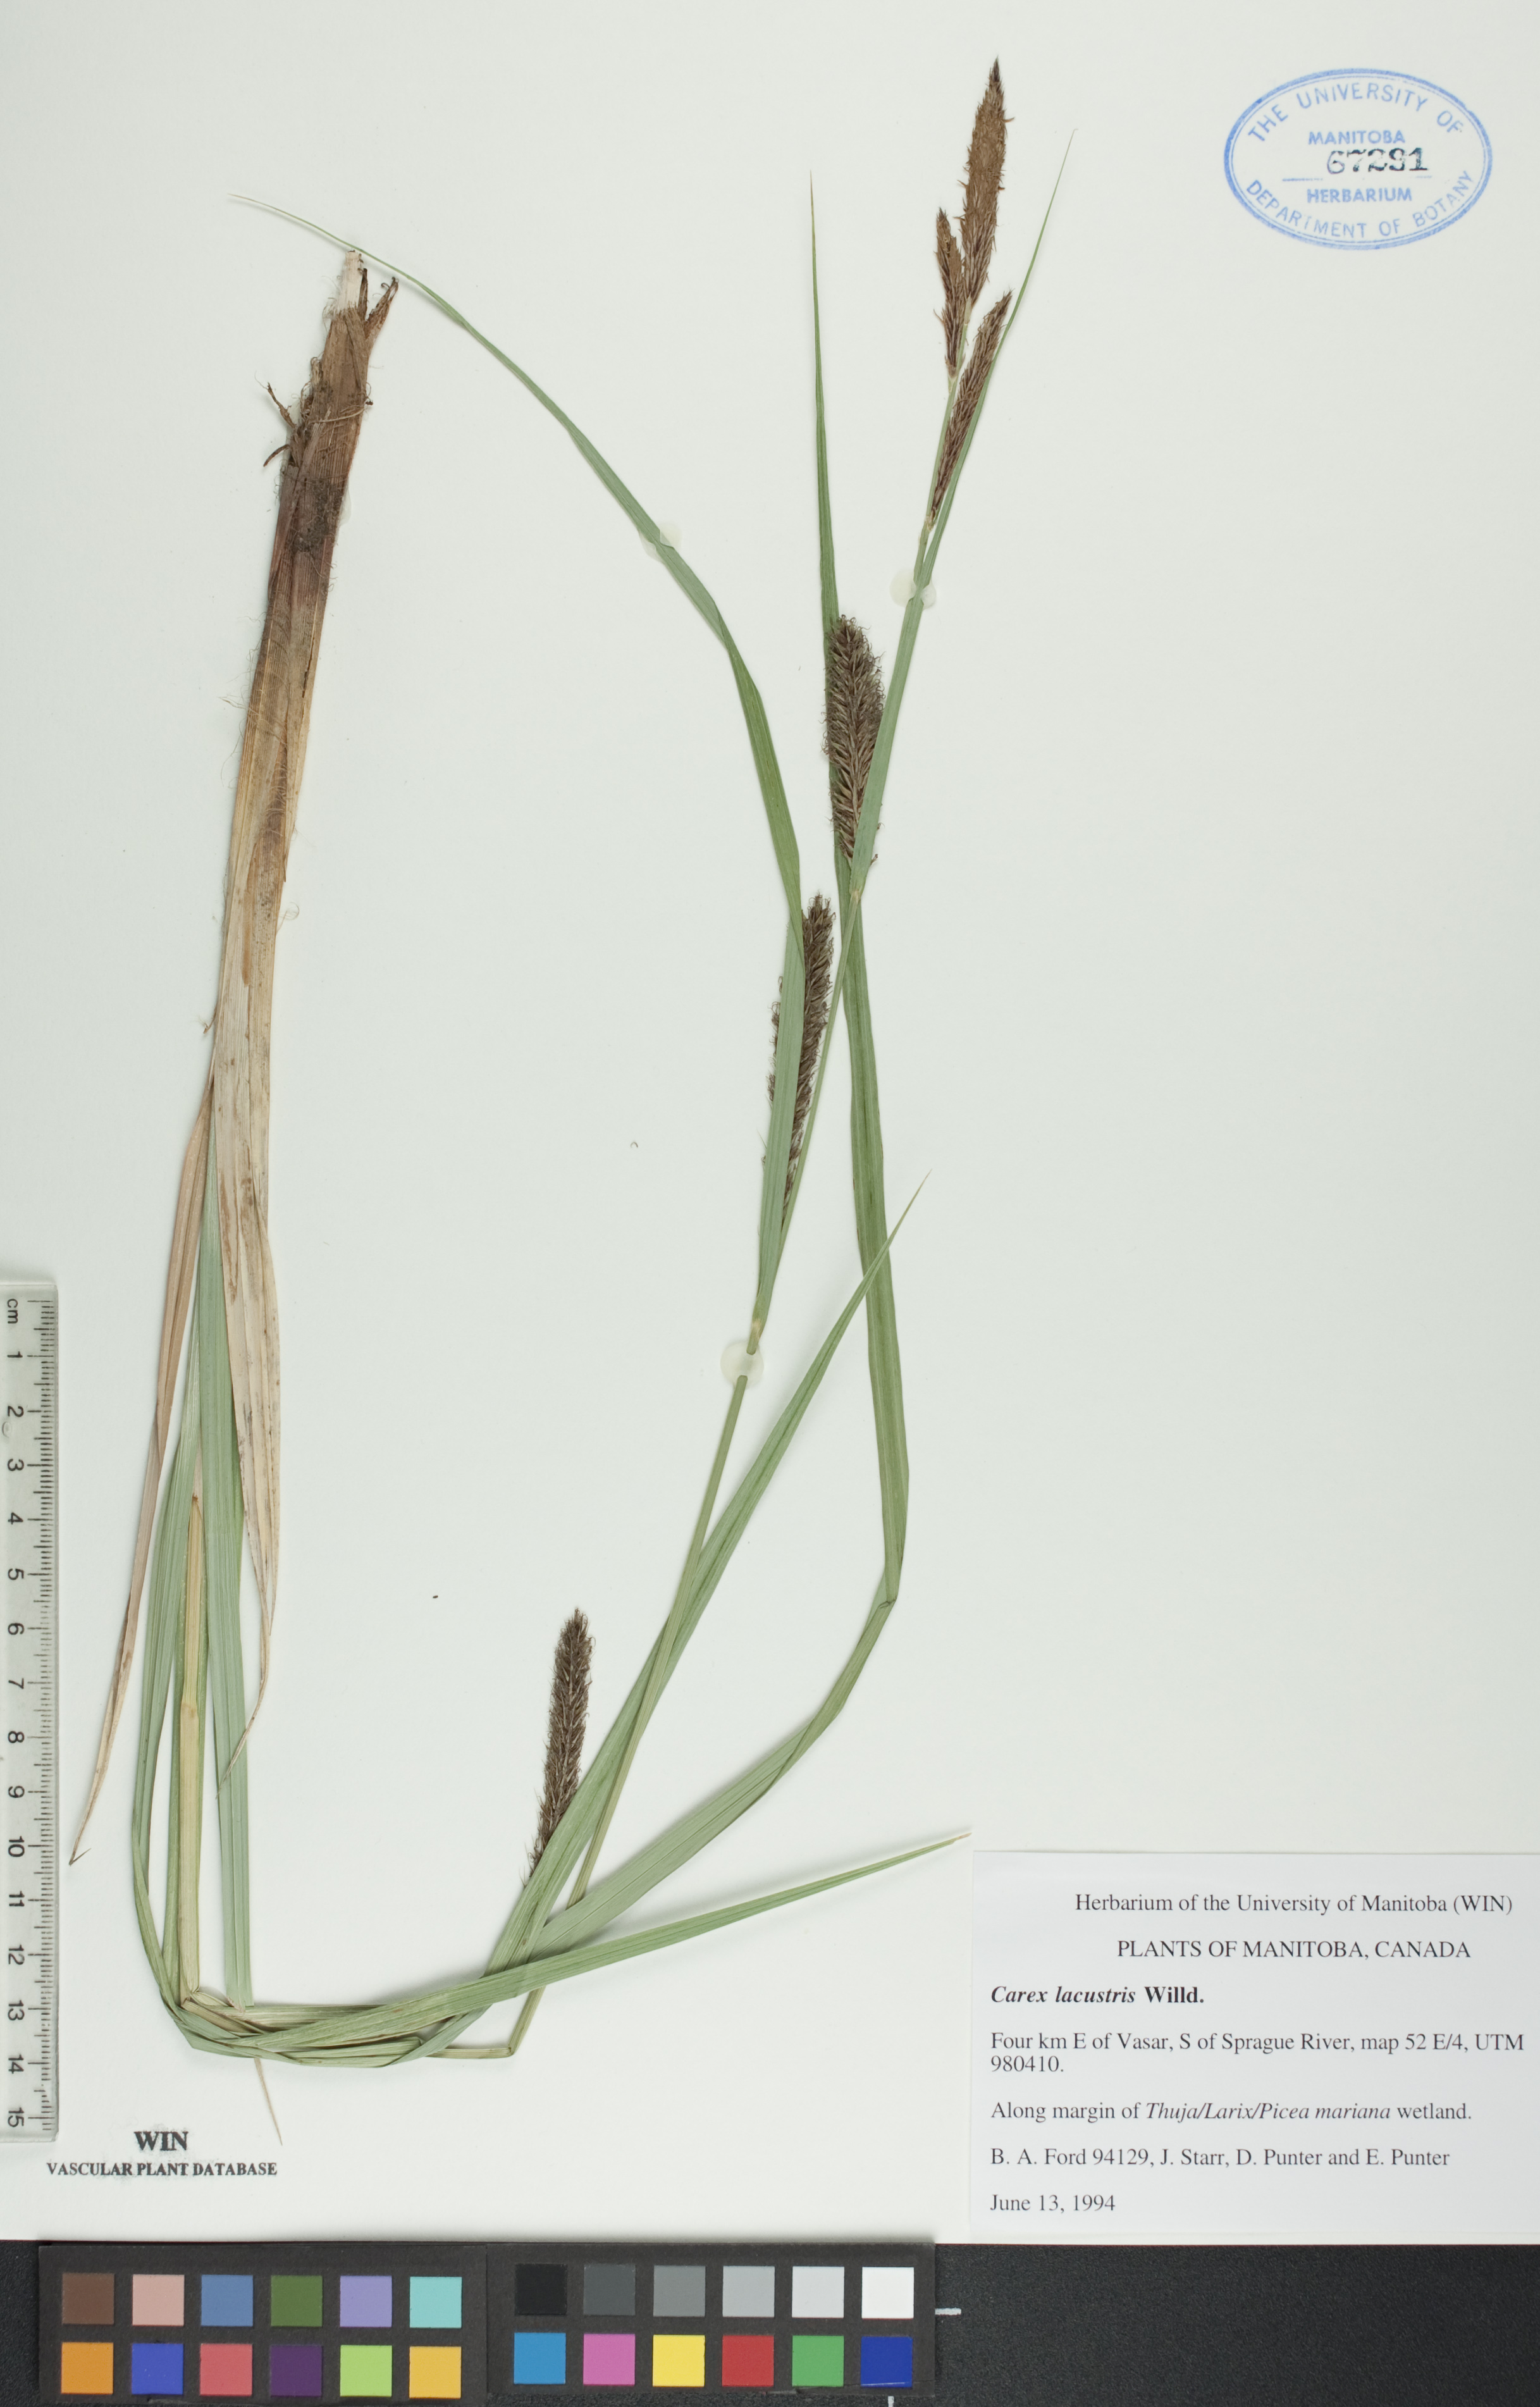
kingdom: Plantae
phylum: Tracheophyta
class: Liliopsida
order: Poales
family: Cyperaceae
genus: Carex
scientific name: Carex lacustris
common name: Common lake sedge
